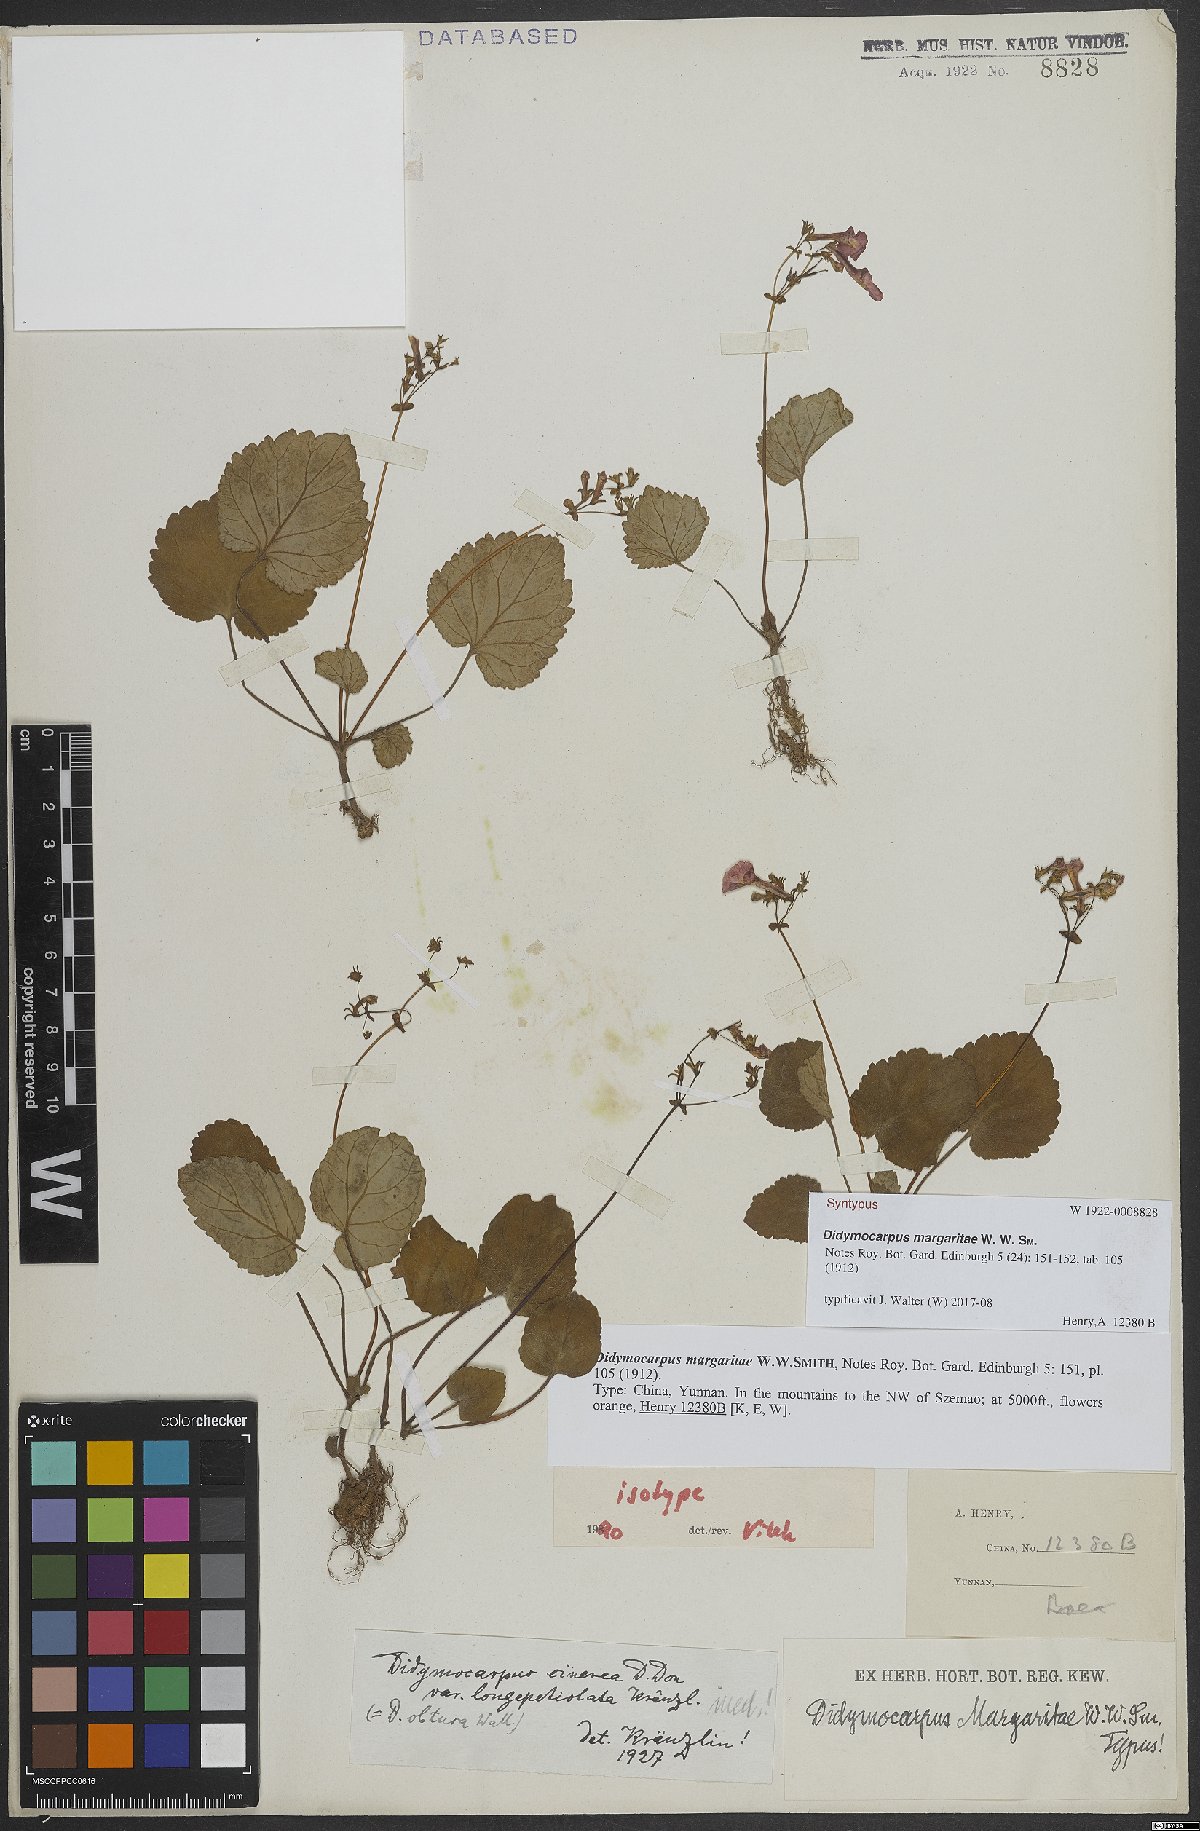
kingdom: Plantae
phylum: Tracheophyta
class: Magnoliopsida
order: Lamiales
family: Gesneriaceae
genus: Didymocarpus
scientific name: Didymocarpus margaritae
